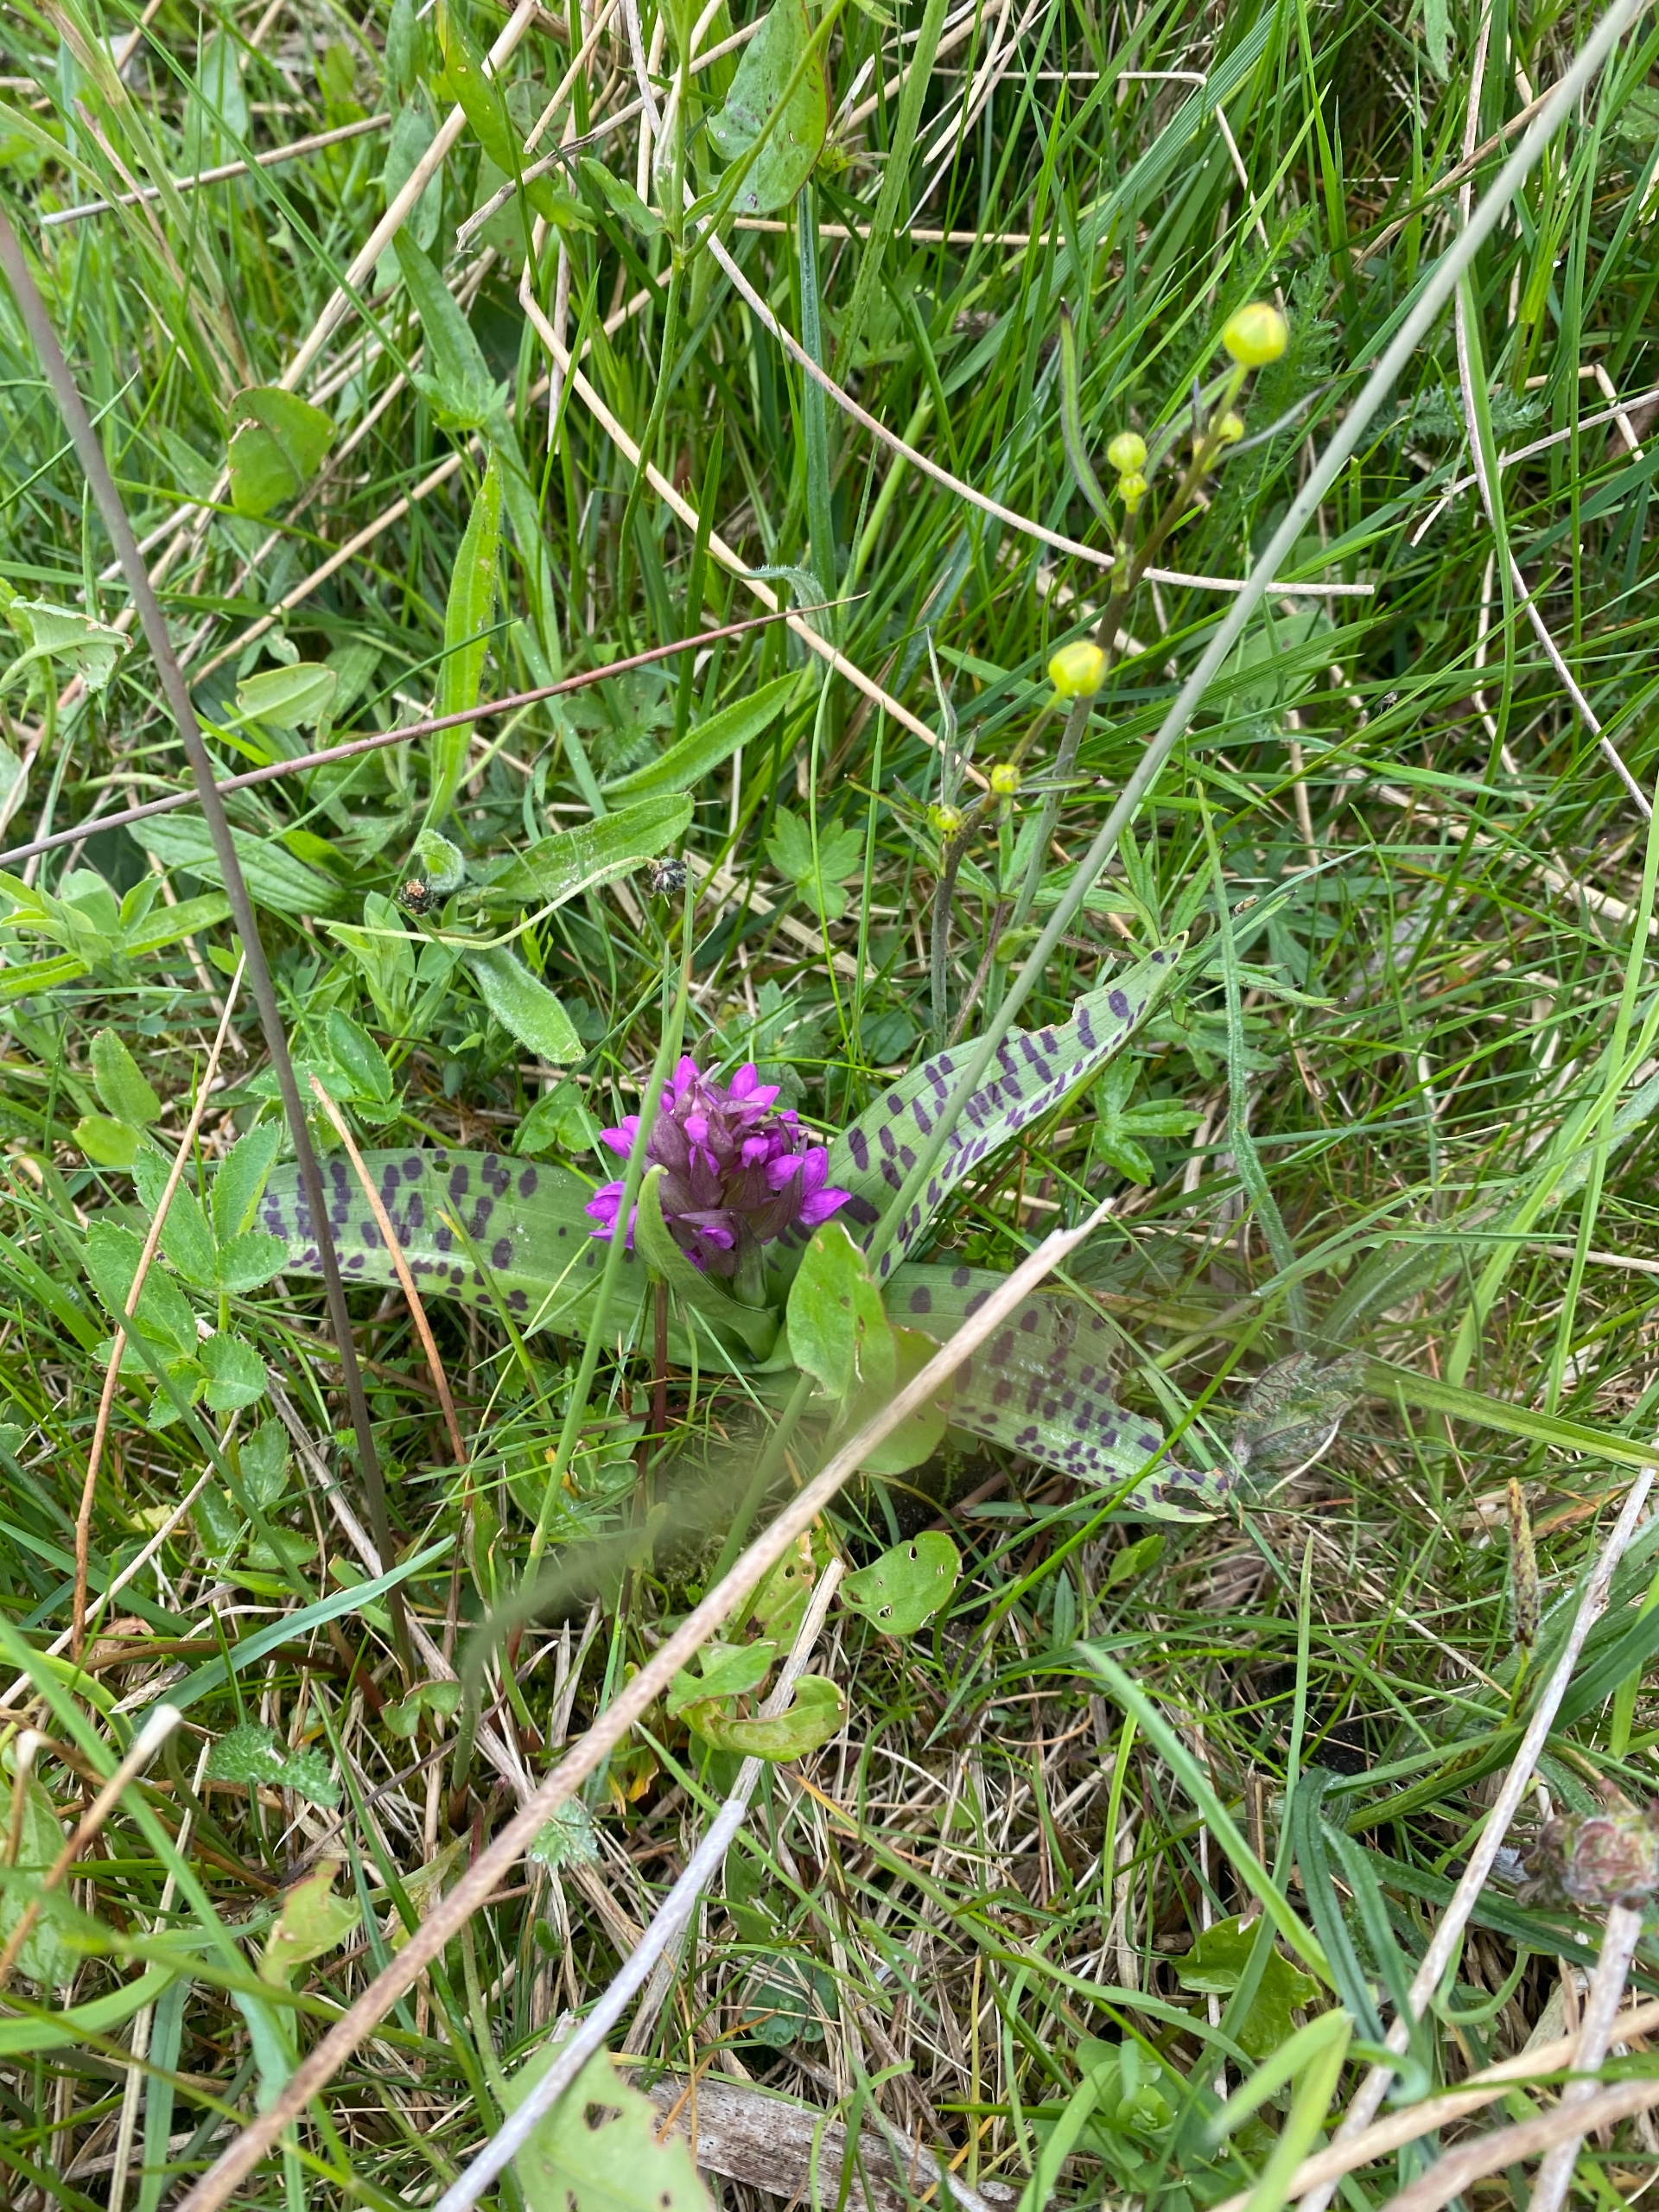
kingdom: Plantae
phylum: Tracheophyta
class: Liliopsida
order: Asparagales
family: Orchidaceae
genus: Dactylorhiza
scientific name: Dactylorhiza majalis
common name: Maj-gøgeurt
